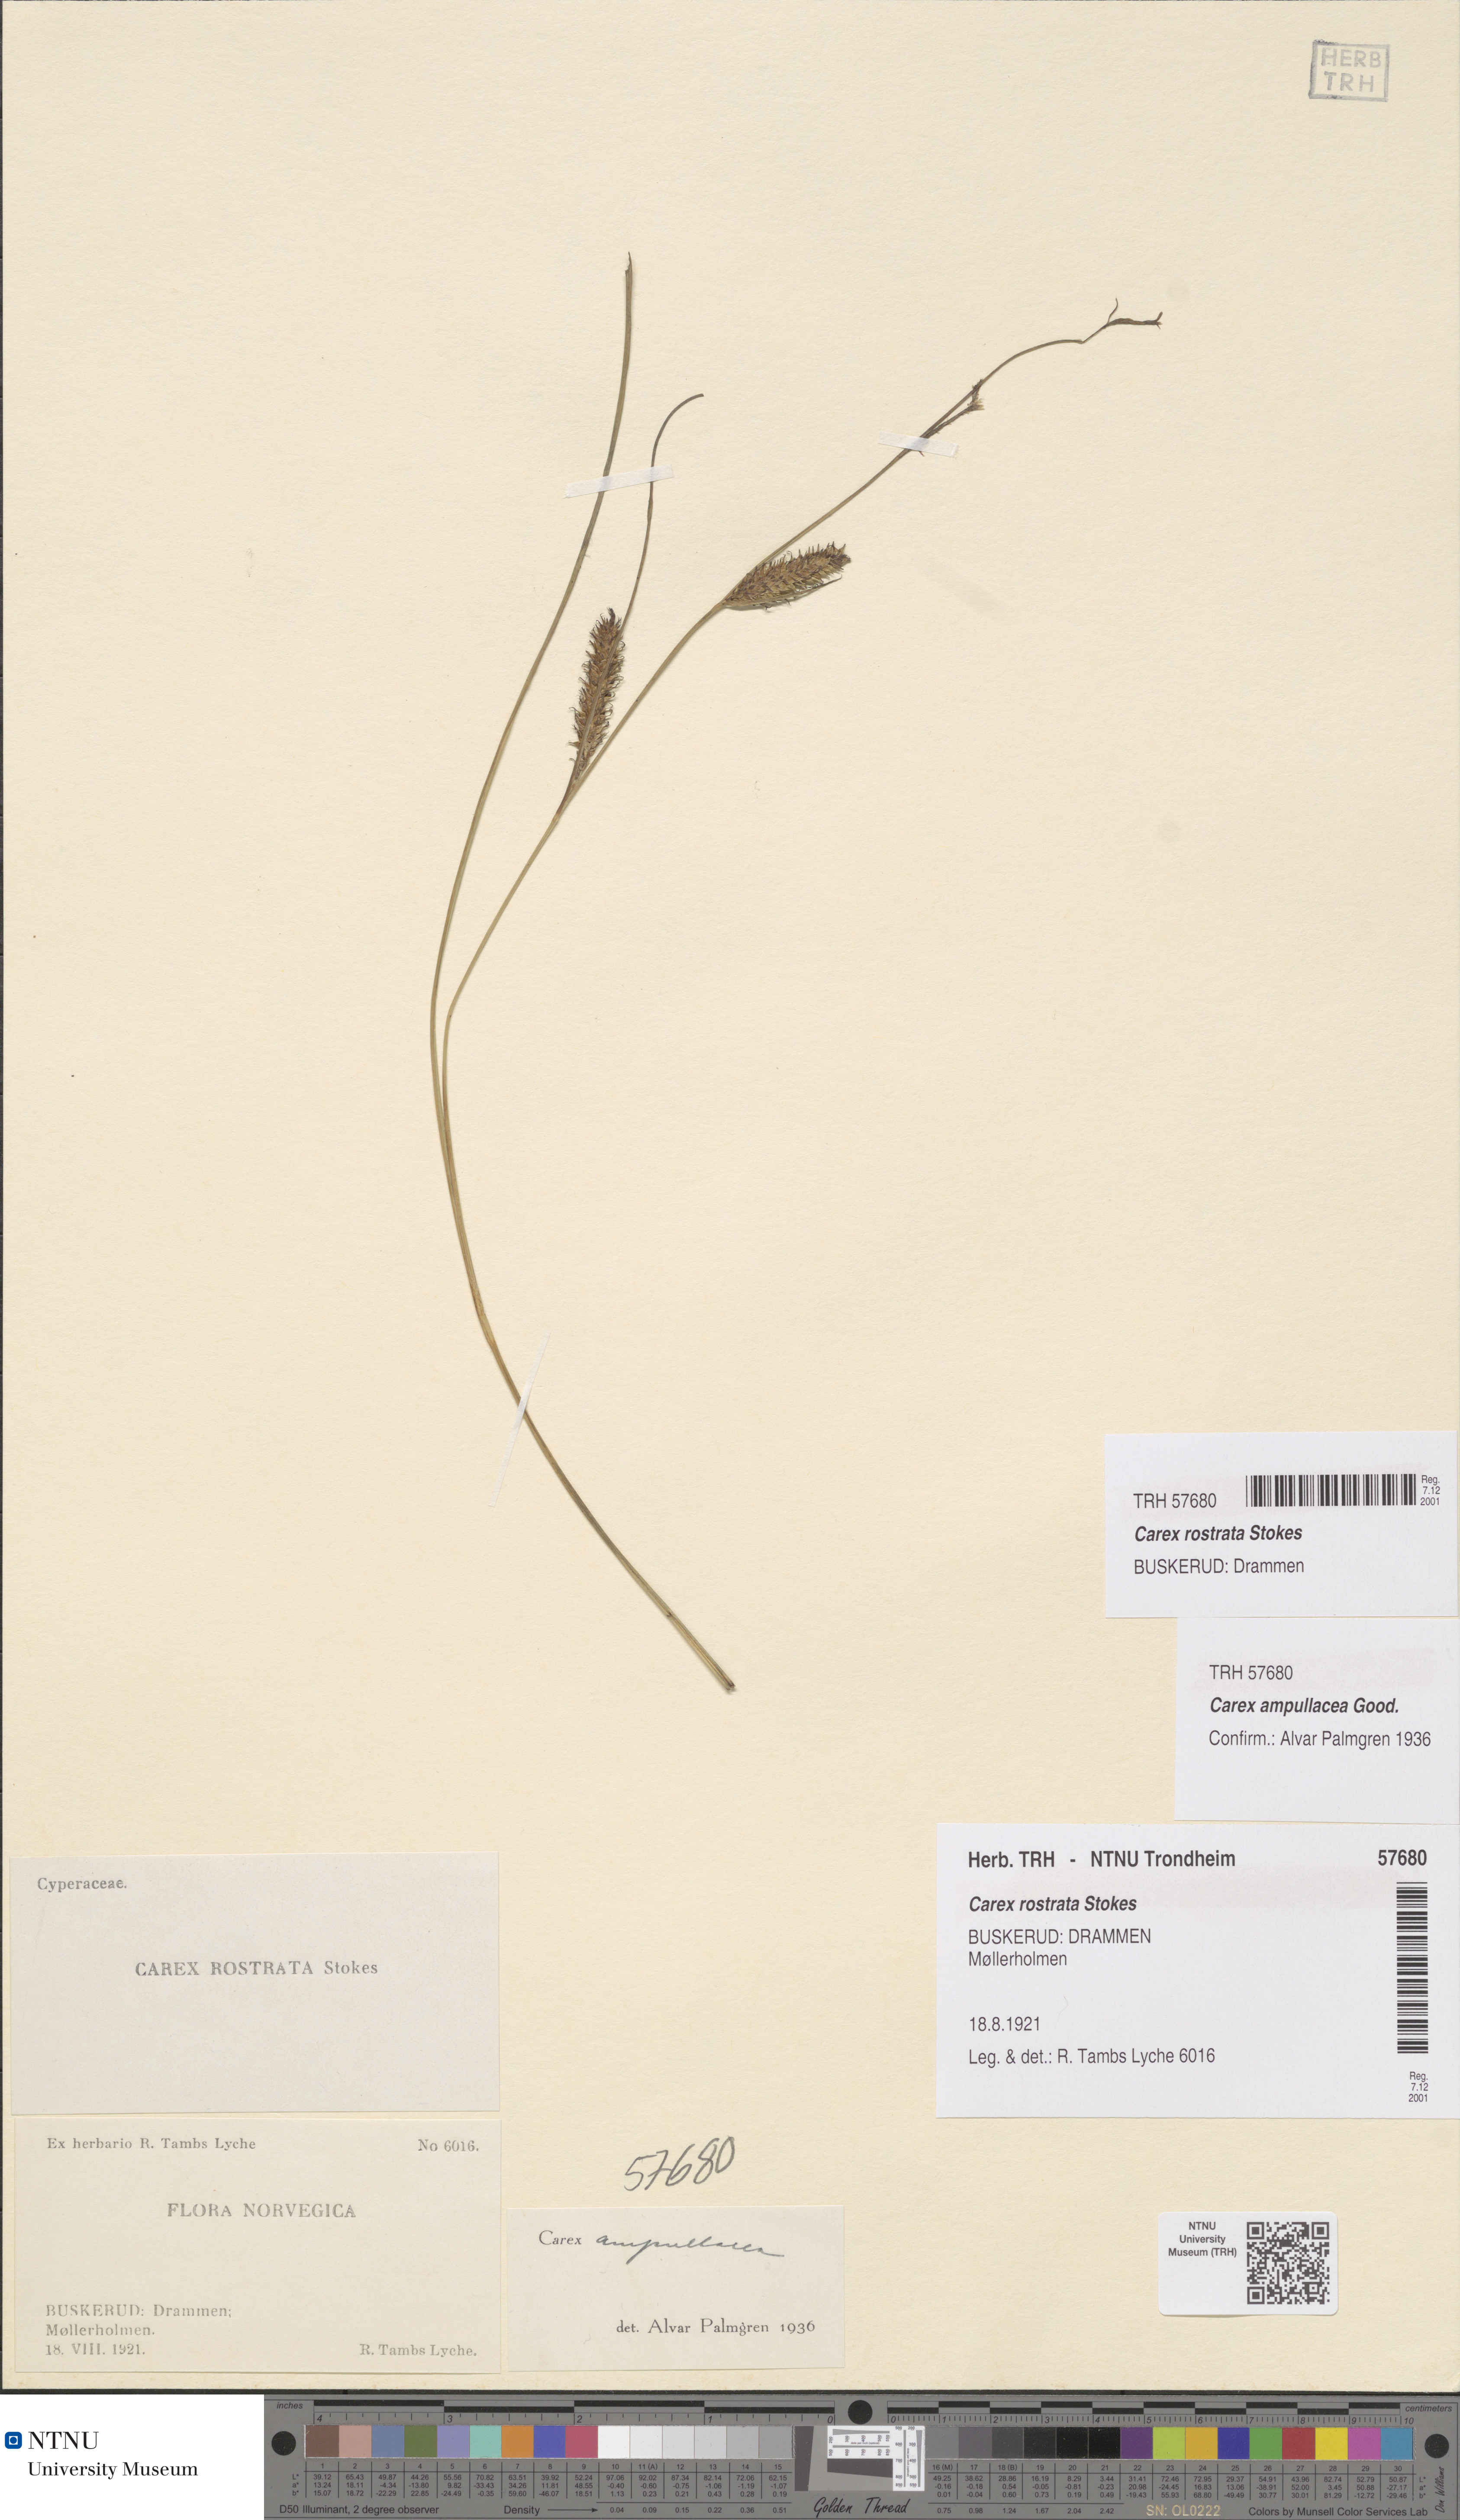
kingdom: Plantae
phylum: Tracheophyta
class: Liliopsida
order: Poales
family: Cyperaceae
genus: Carex
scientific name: Carex rostrata
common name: Bottle sedge
